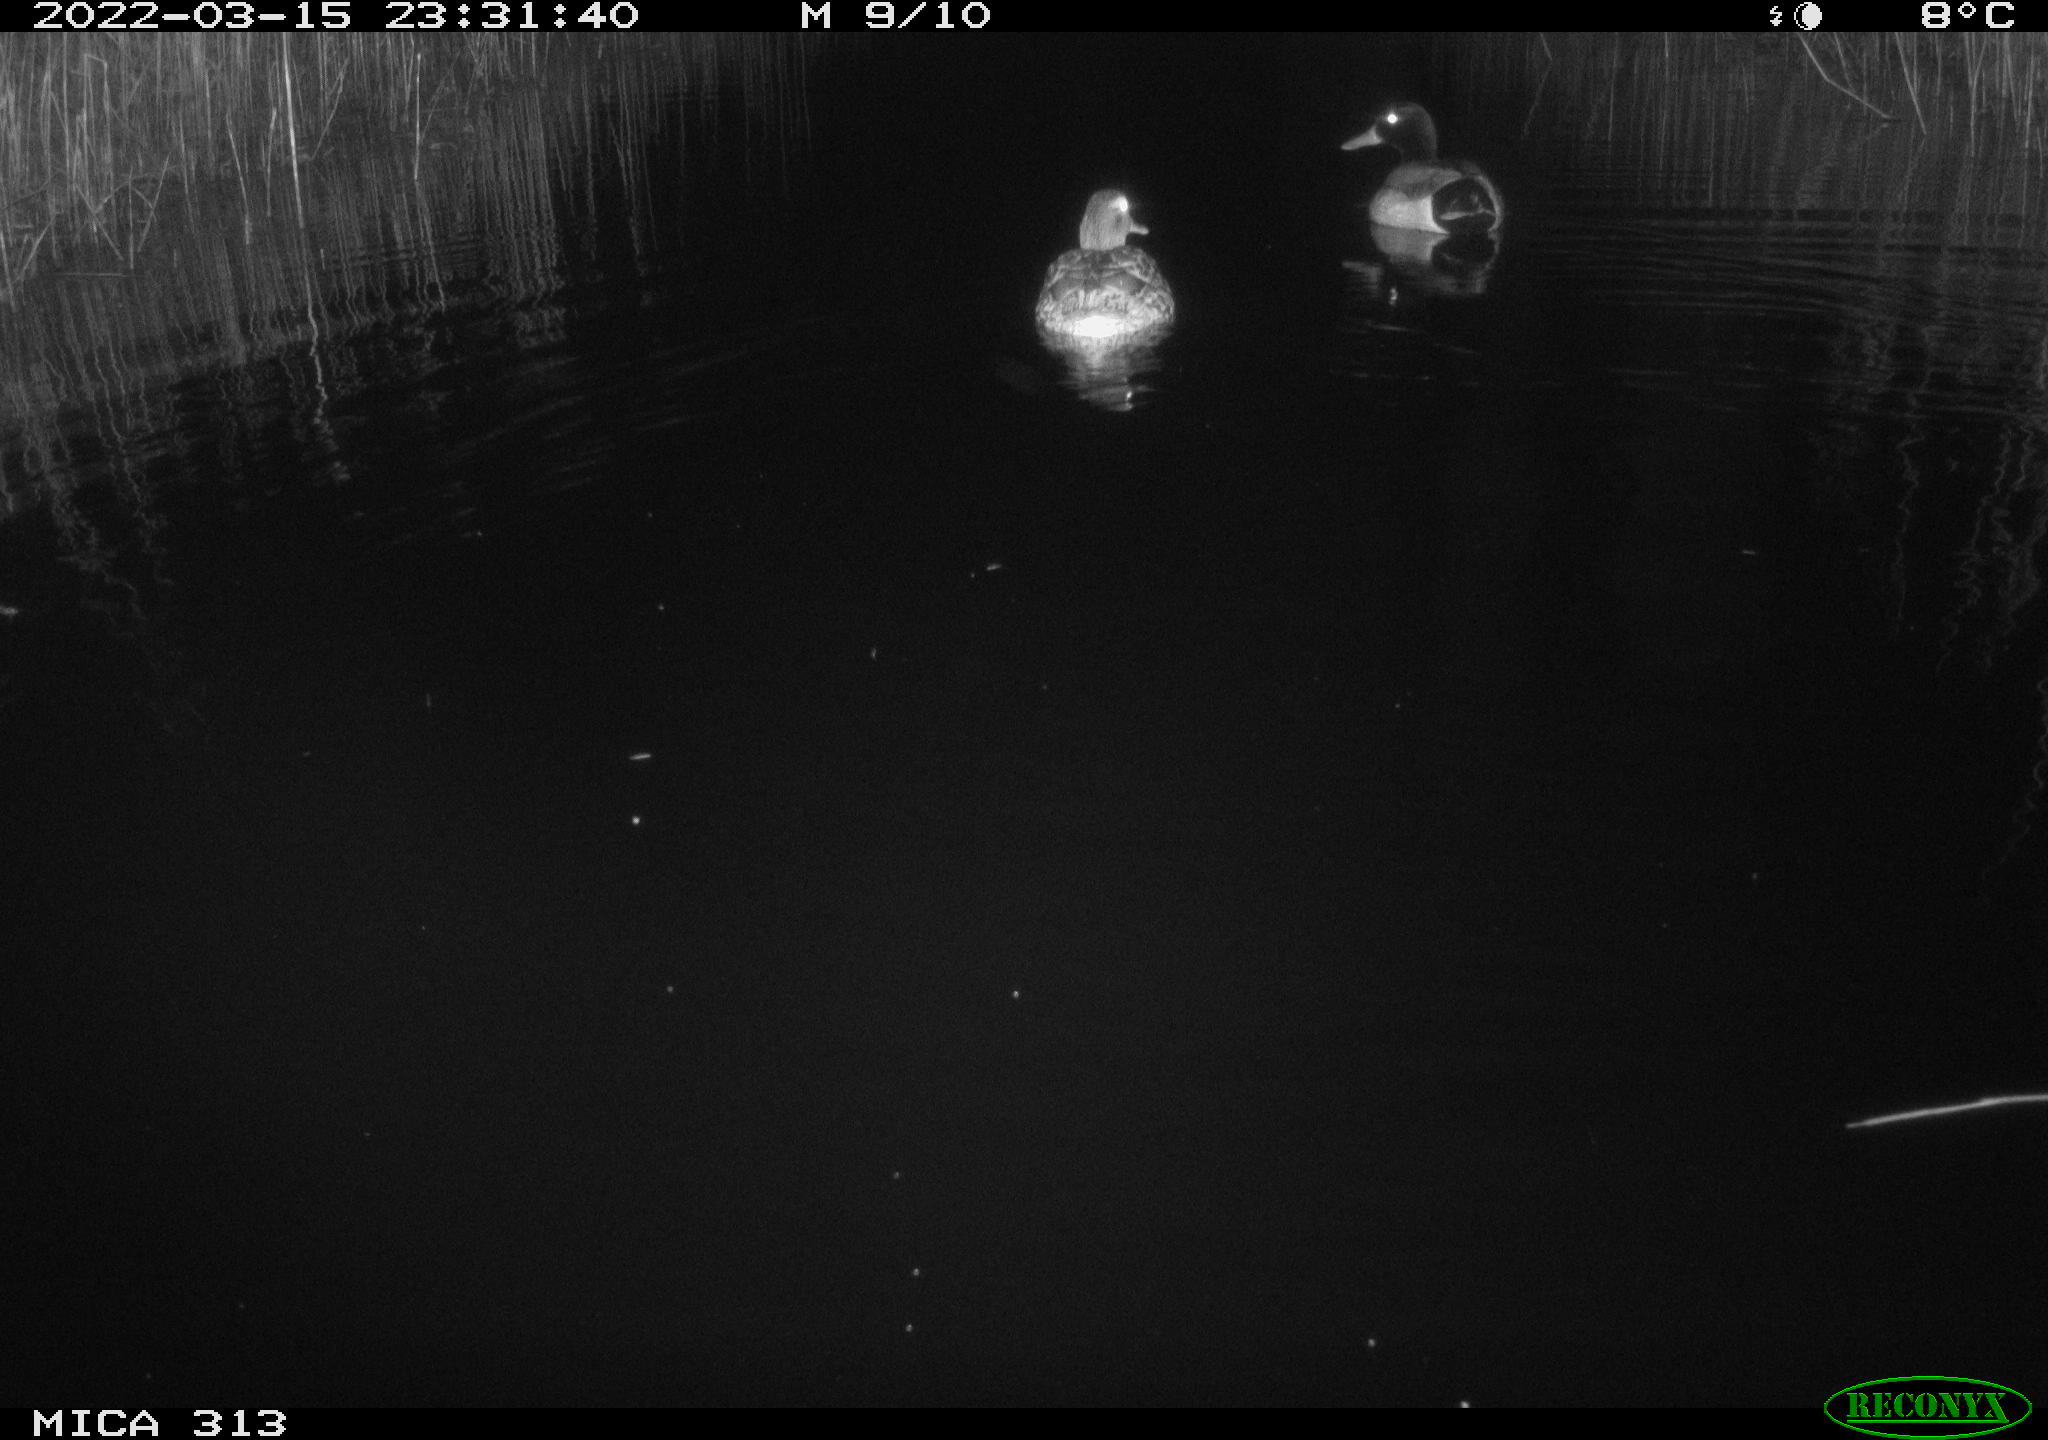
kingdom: Animalia
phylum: Chordata
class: Aves
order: Anseriformes
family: Anatidae
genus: Anas
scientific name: Anas platyrhynchos
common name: Mallard
